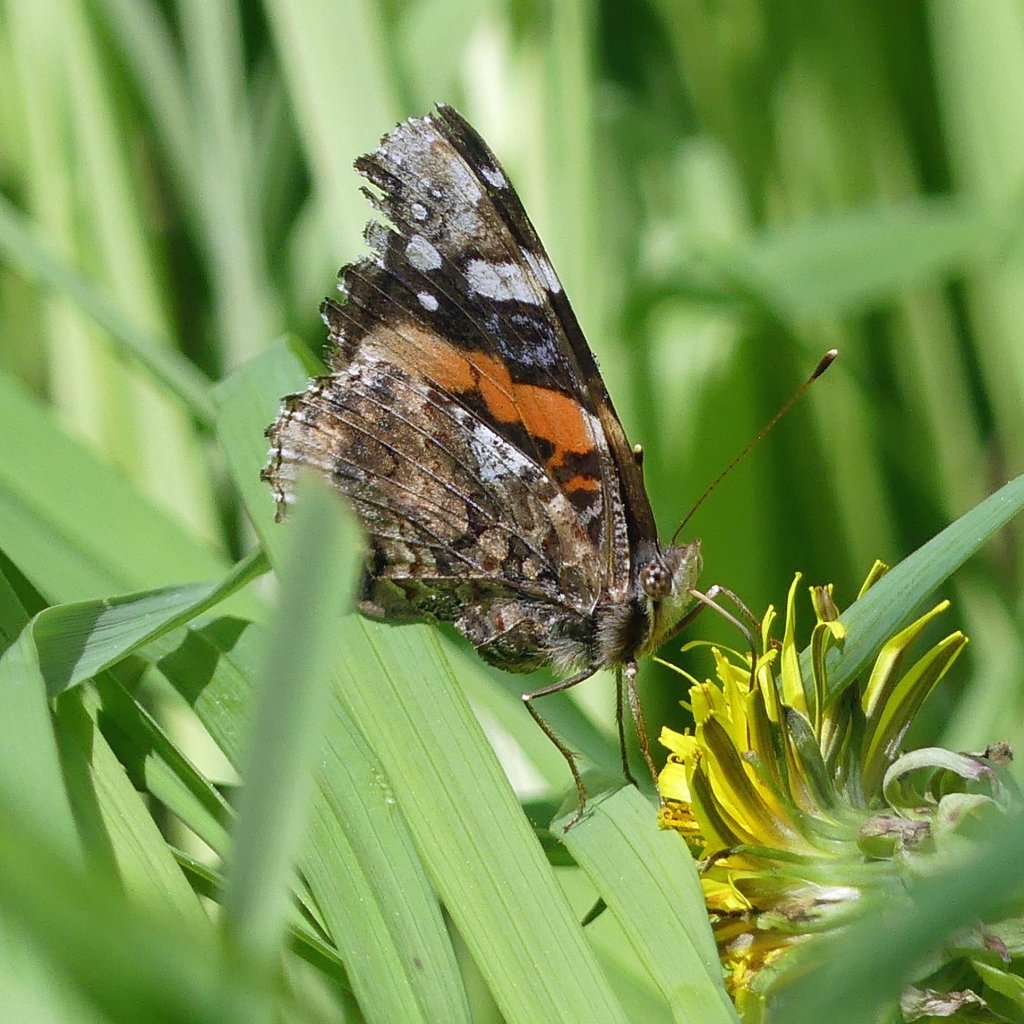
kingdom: Animalia
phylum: Arthropoda
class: Insecta
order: Lepidoptera
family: Nymphalidae
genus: Vanessa
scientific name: Vanessa atalanta
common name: Red Admiral
